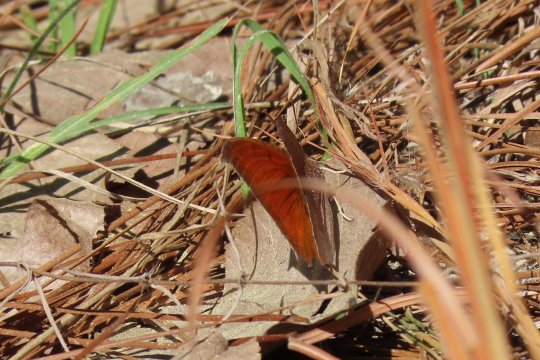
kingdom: Animalia
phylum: Arthropoda
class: Insecta
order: Lepidoptera
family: Nymphalidae
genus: Anaea
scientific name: Anaea andria
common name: Goatweed Leafwing
